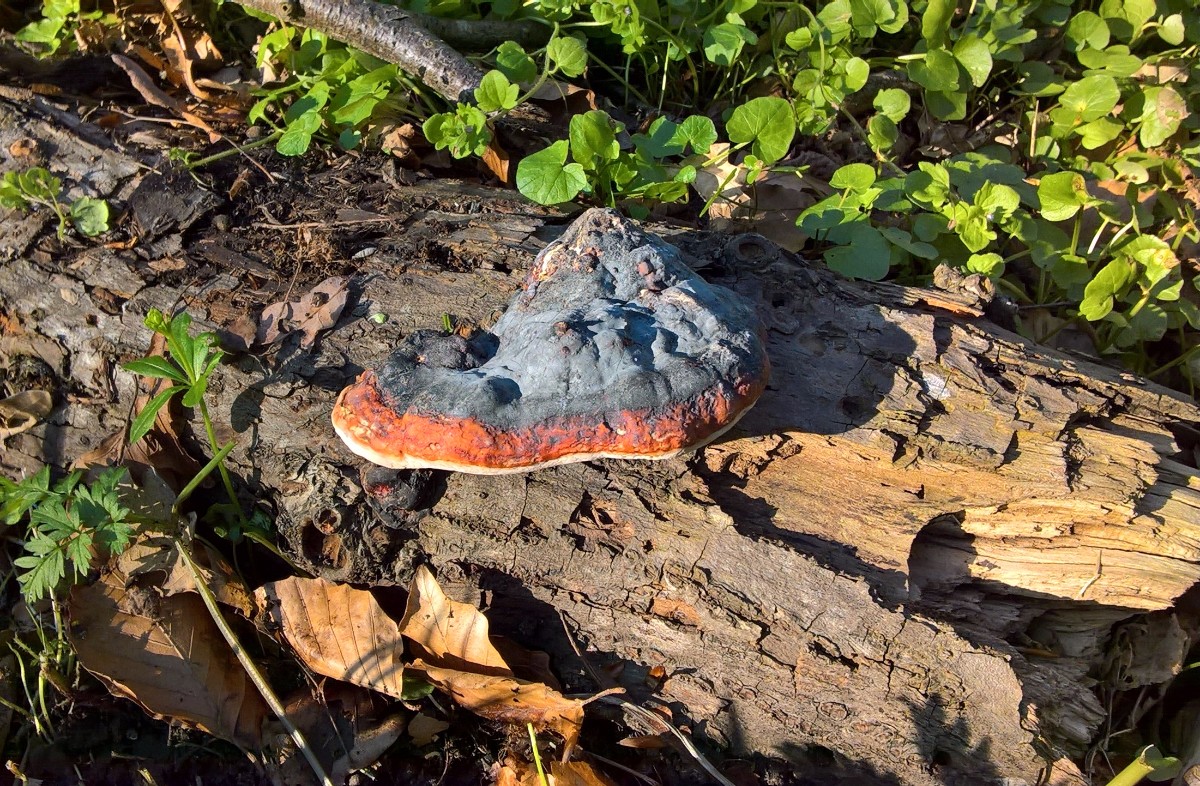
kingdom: Fungi
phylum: Basidiomycota
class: Agaricomycetes
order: Polyporales
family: Fomitopsidaceae
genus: Fomitopsis
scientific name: Fomitopsis pinicola
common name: randbæltet hovporesvamp
